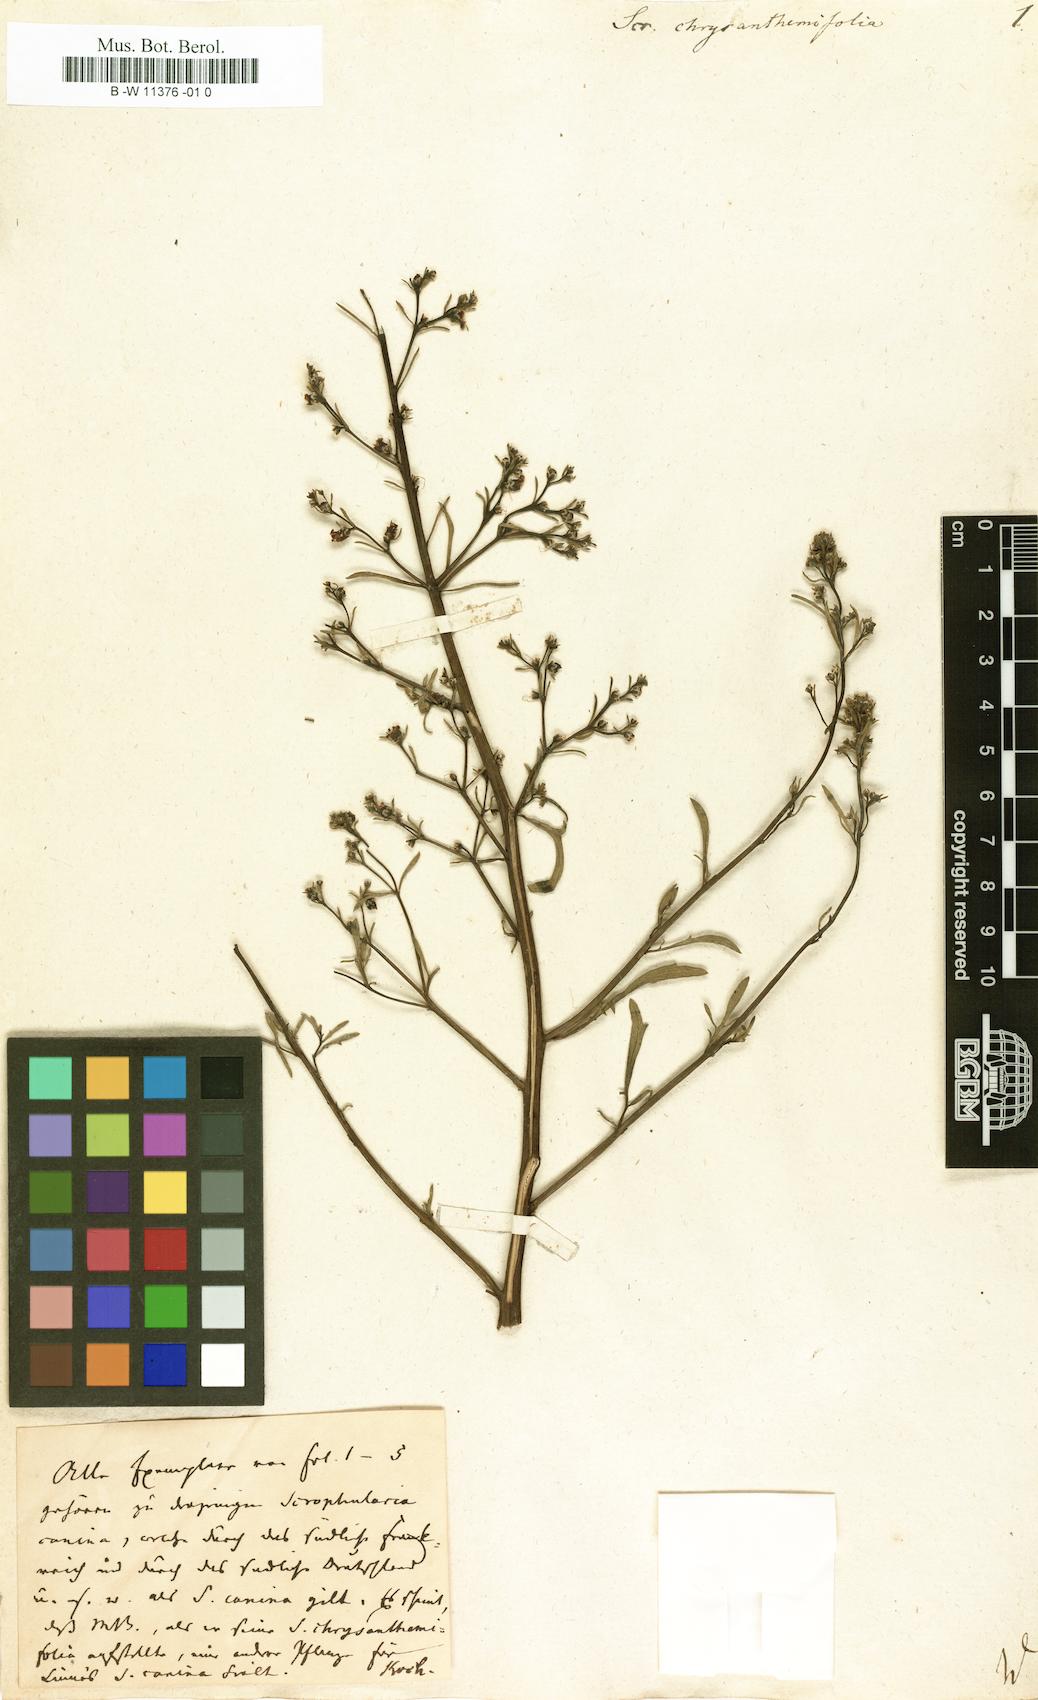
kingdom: Plantae
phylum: Tracheophyta
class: Magnoliopsida
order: Lamiales
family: Scrophulariaceae
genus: Scrophularia
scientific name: Scrophularia
